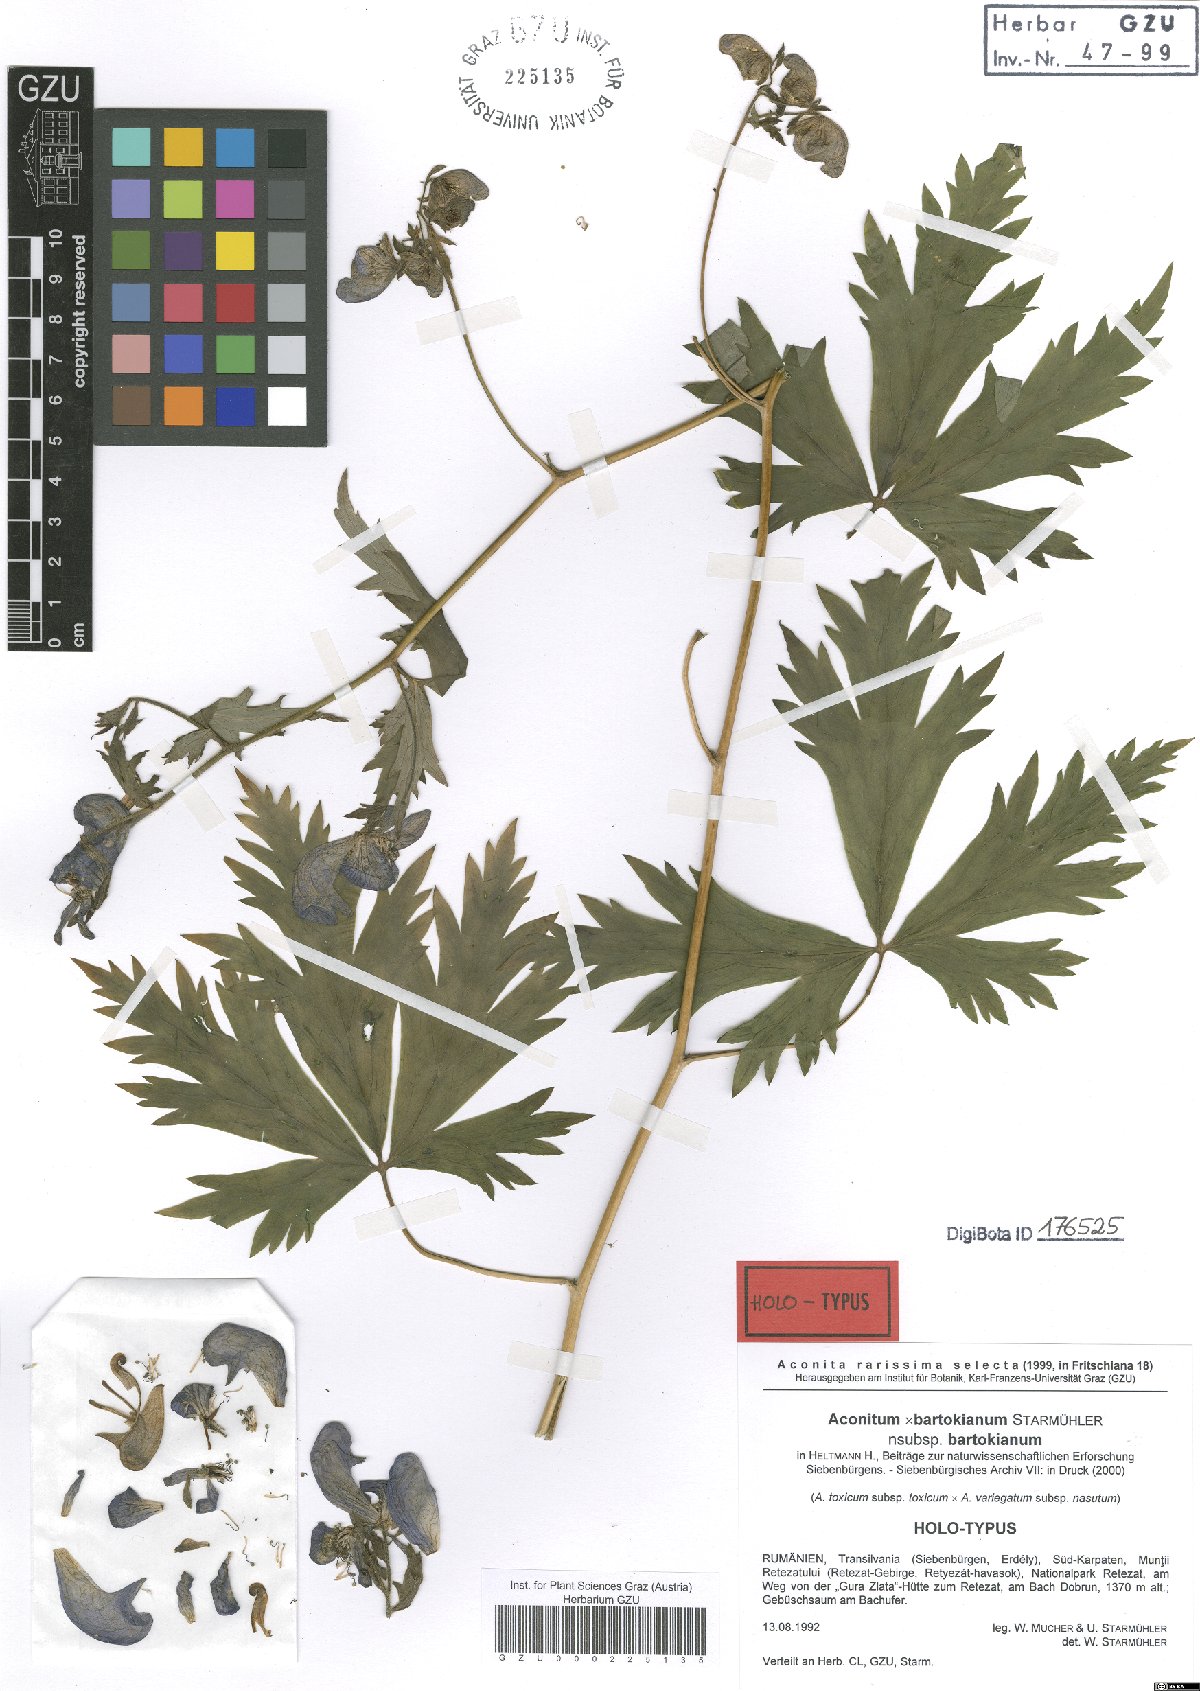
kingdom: Plantae
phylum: Tracheophyta
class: Magnoliopsida
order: Ranunculales
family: Ranunculaceae
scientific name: Ranunculaceae
